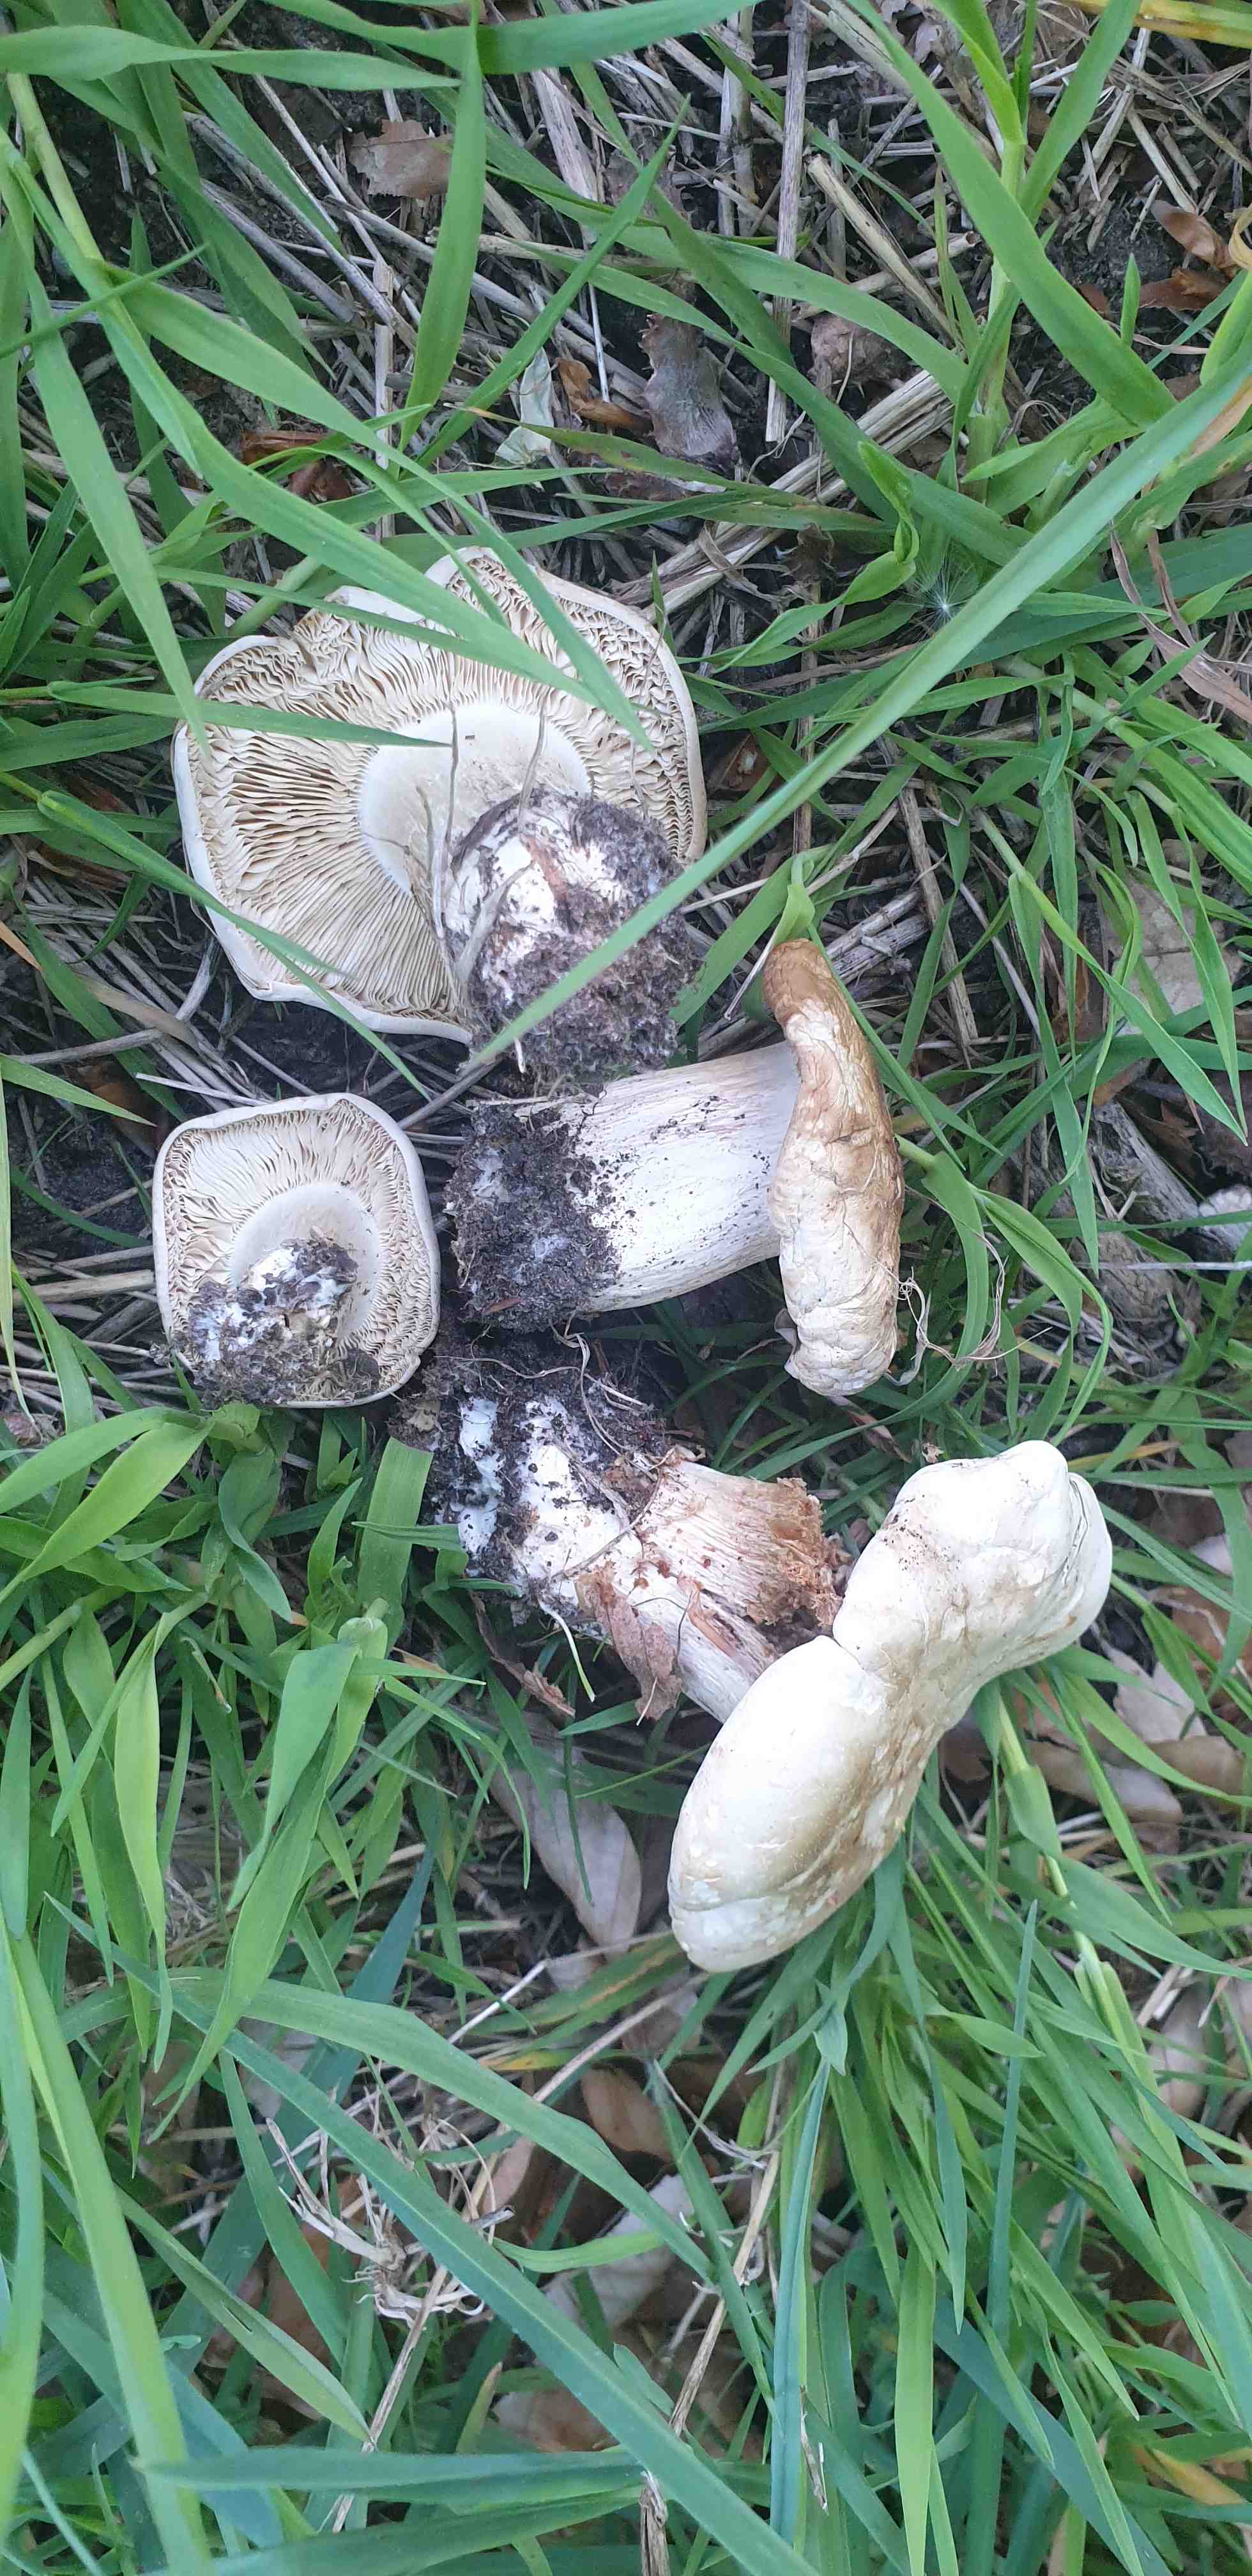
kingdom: Fungi
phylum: Basidiomycota
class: Agaricomycetes
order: Agaricales
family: Lyophyllaceae
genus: Calocybe
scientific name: Calocybe gambosa
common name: vårmusseron
